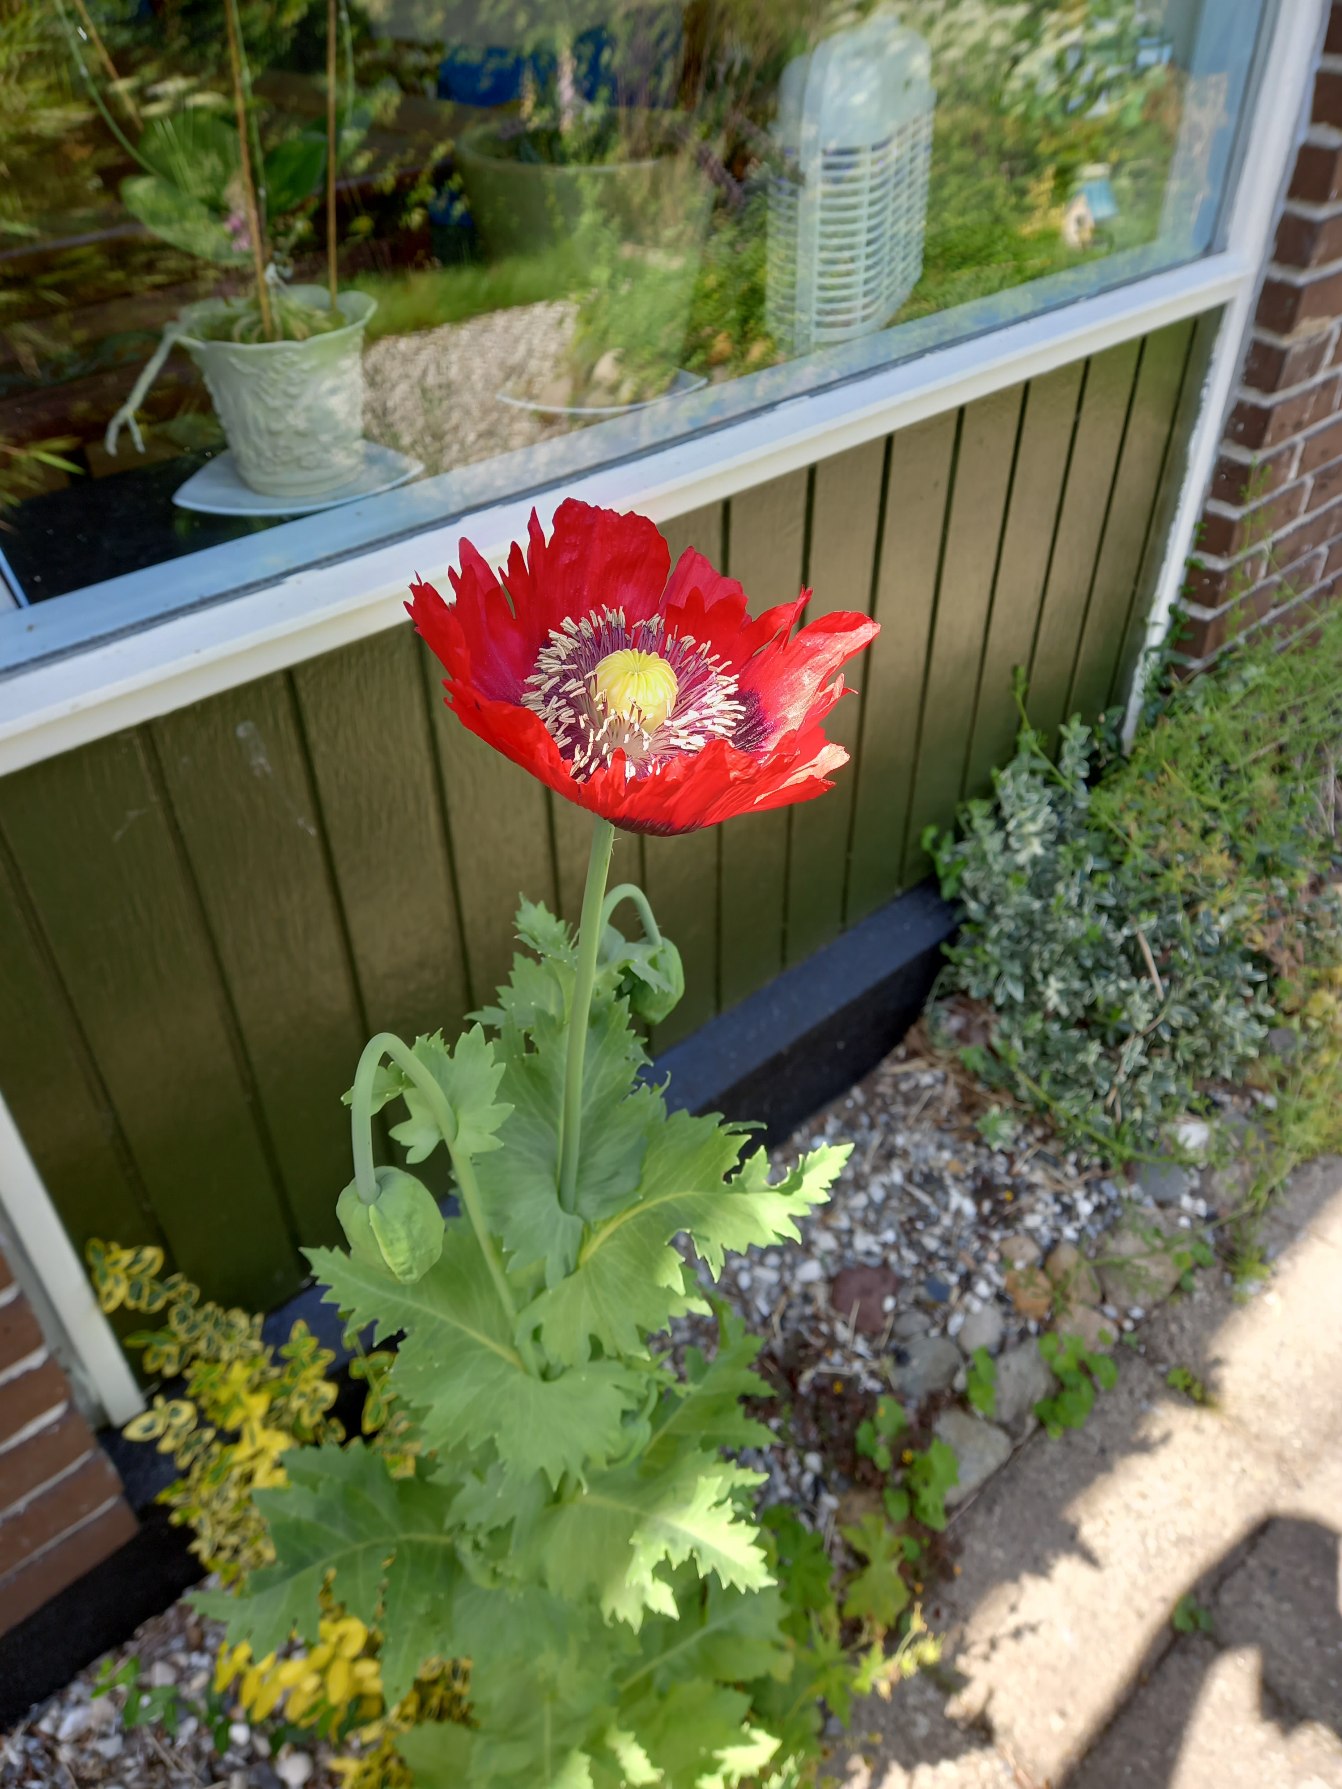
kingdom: Plantae
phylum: Tracheophyta
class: Magnoliopsida
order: Ranunculales
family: Papaveraceae
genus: Papaver
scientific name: Papaver somniferum
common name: Opium-valmue
